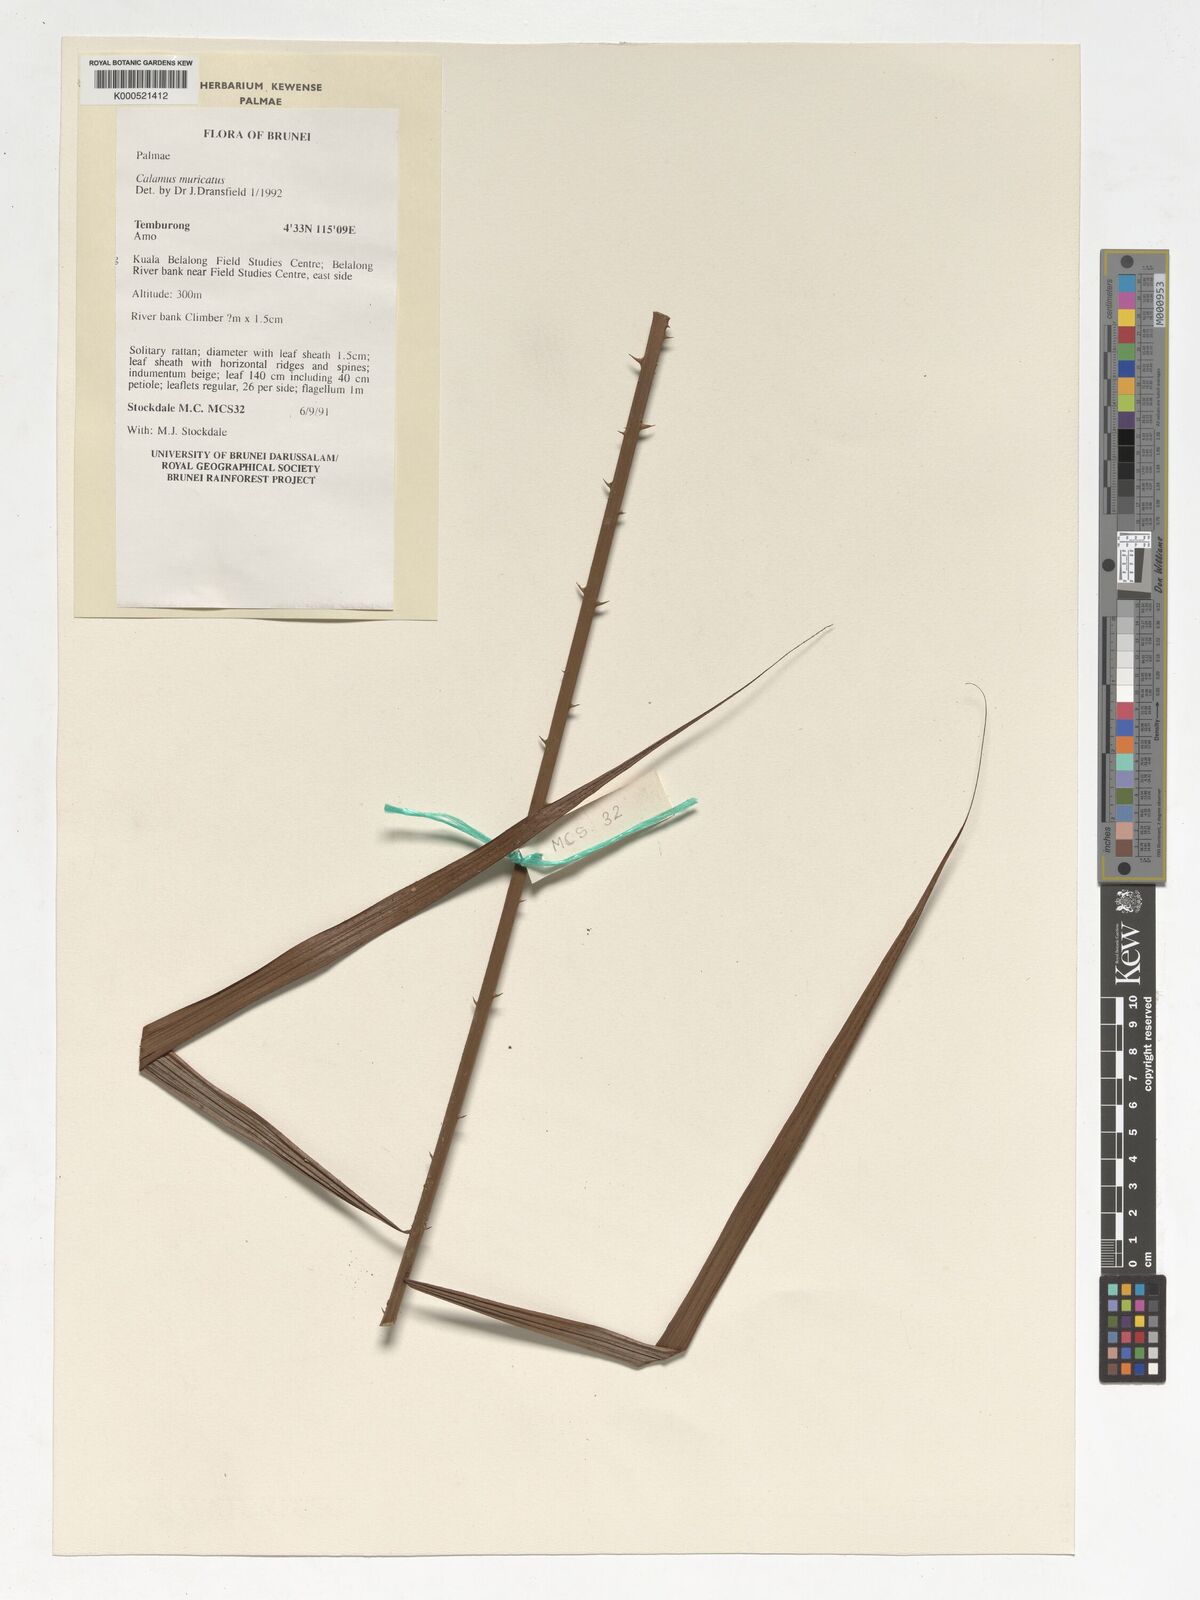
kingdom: Plantae
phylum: Tracheophyta
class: Liliopsida
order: Arecales
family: Arecaceae
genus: Calamus
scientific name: Calamus muricatus
